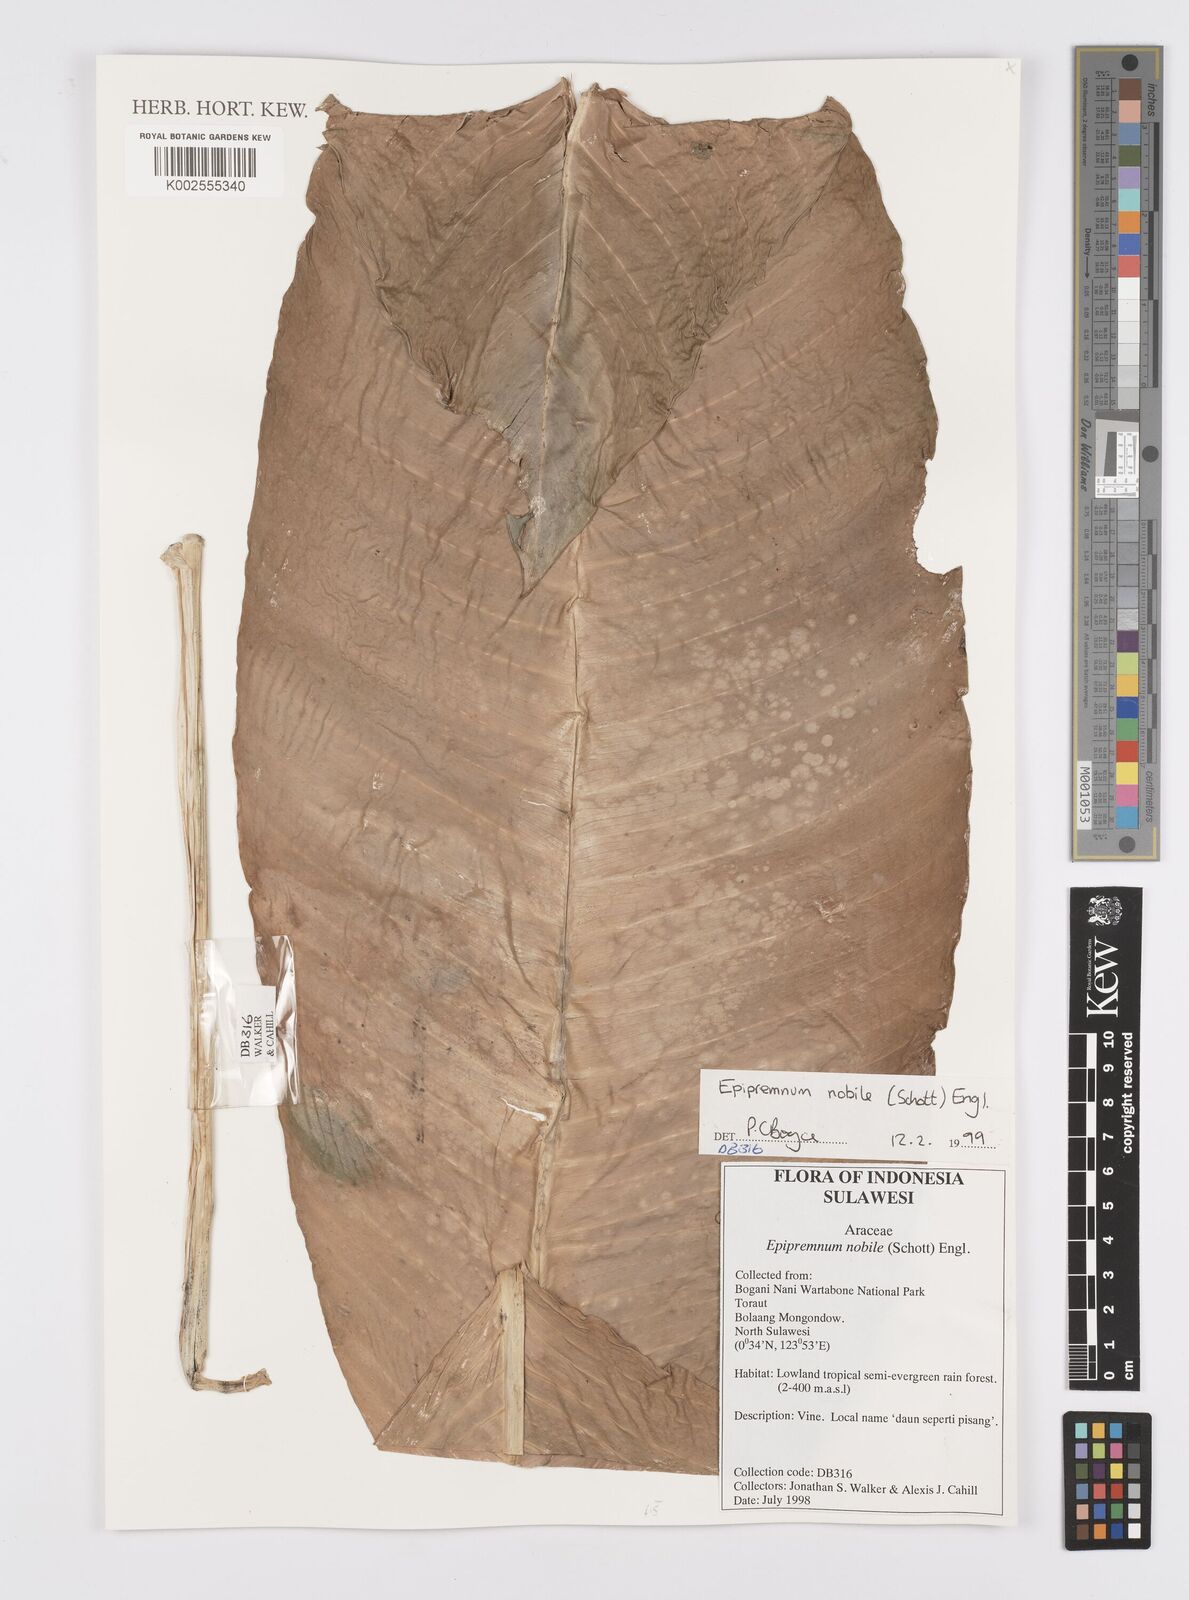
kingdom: Plantae
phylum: Tracheophyta
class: Liliopsida
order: Alismatales
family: Araceae
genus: Epipremnum
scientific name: Epipremnum nobile
